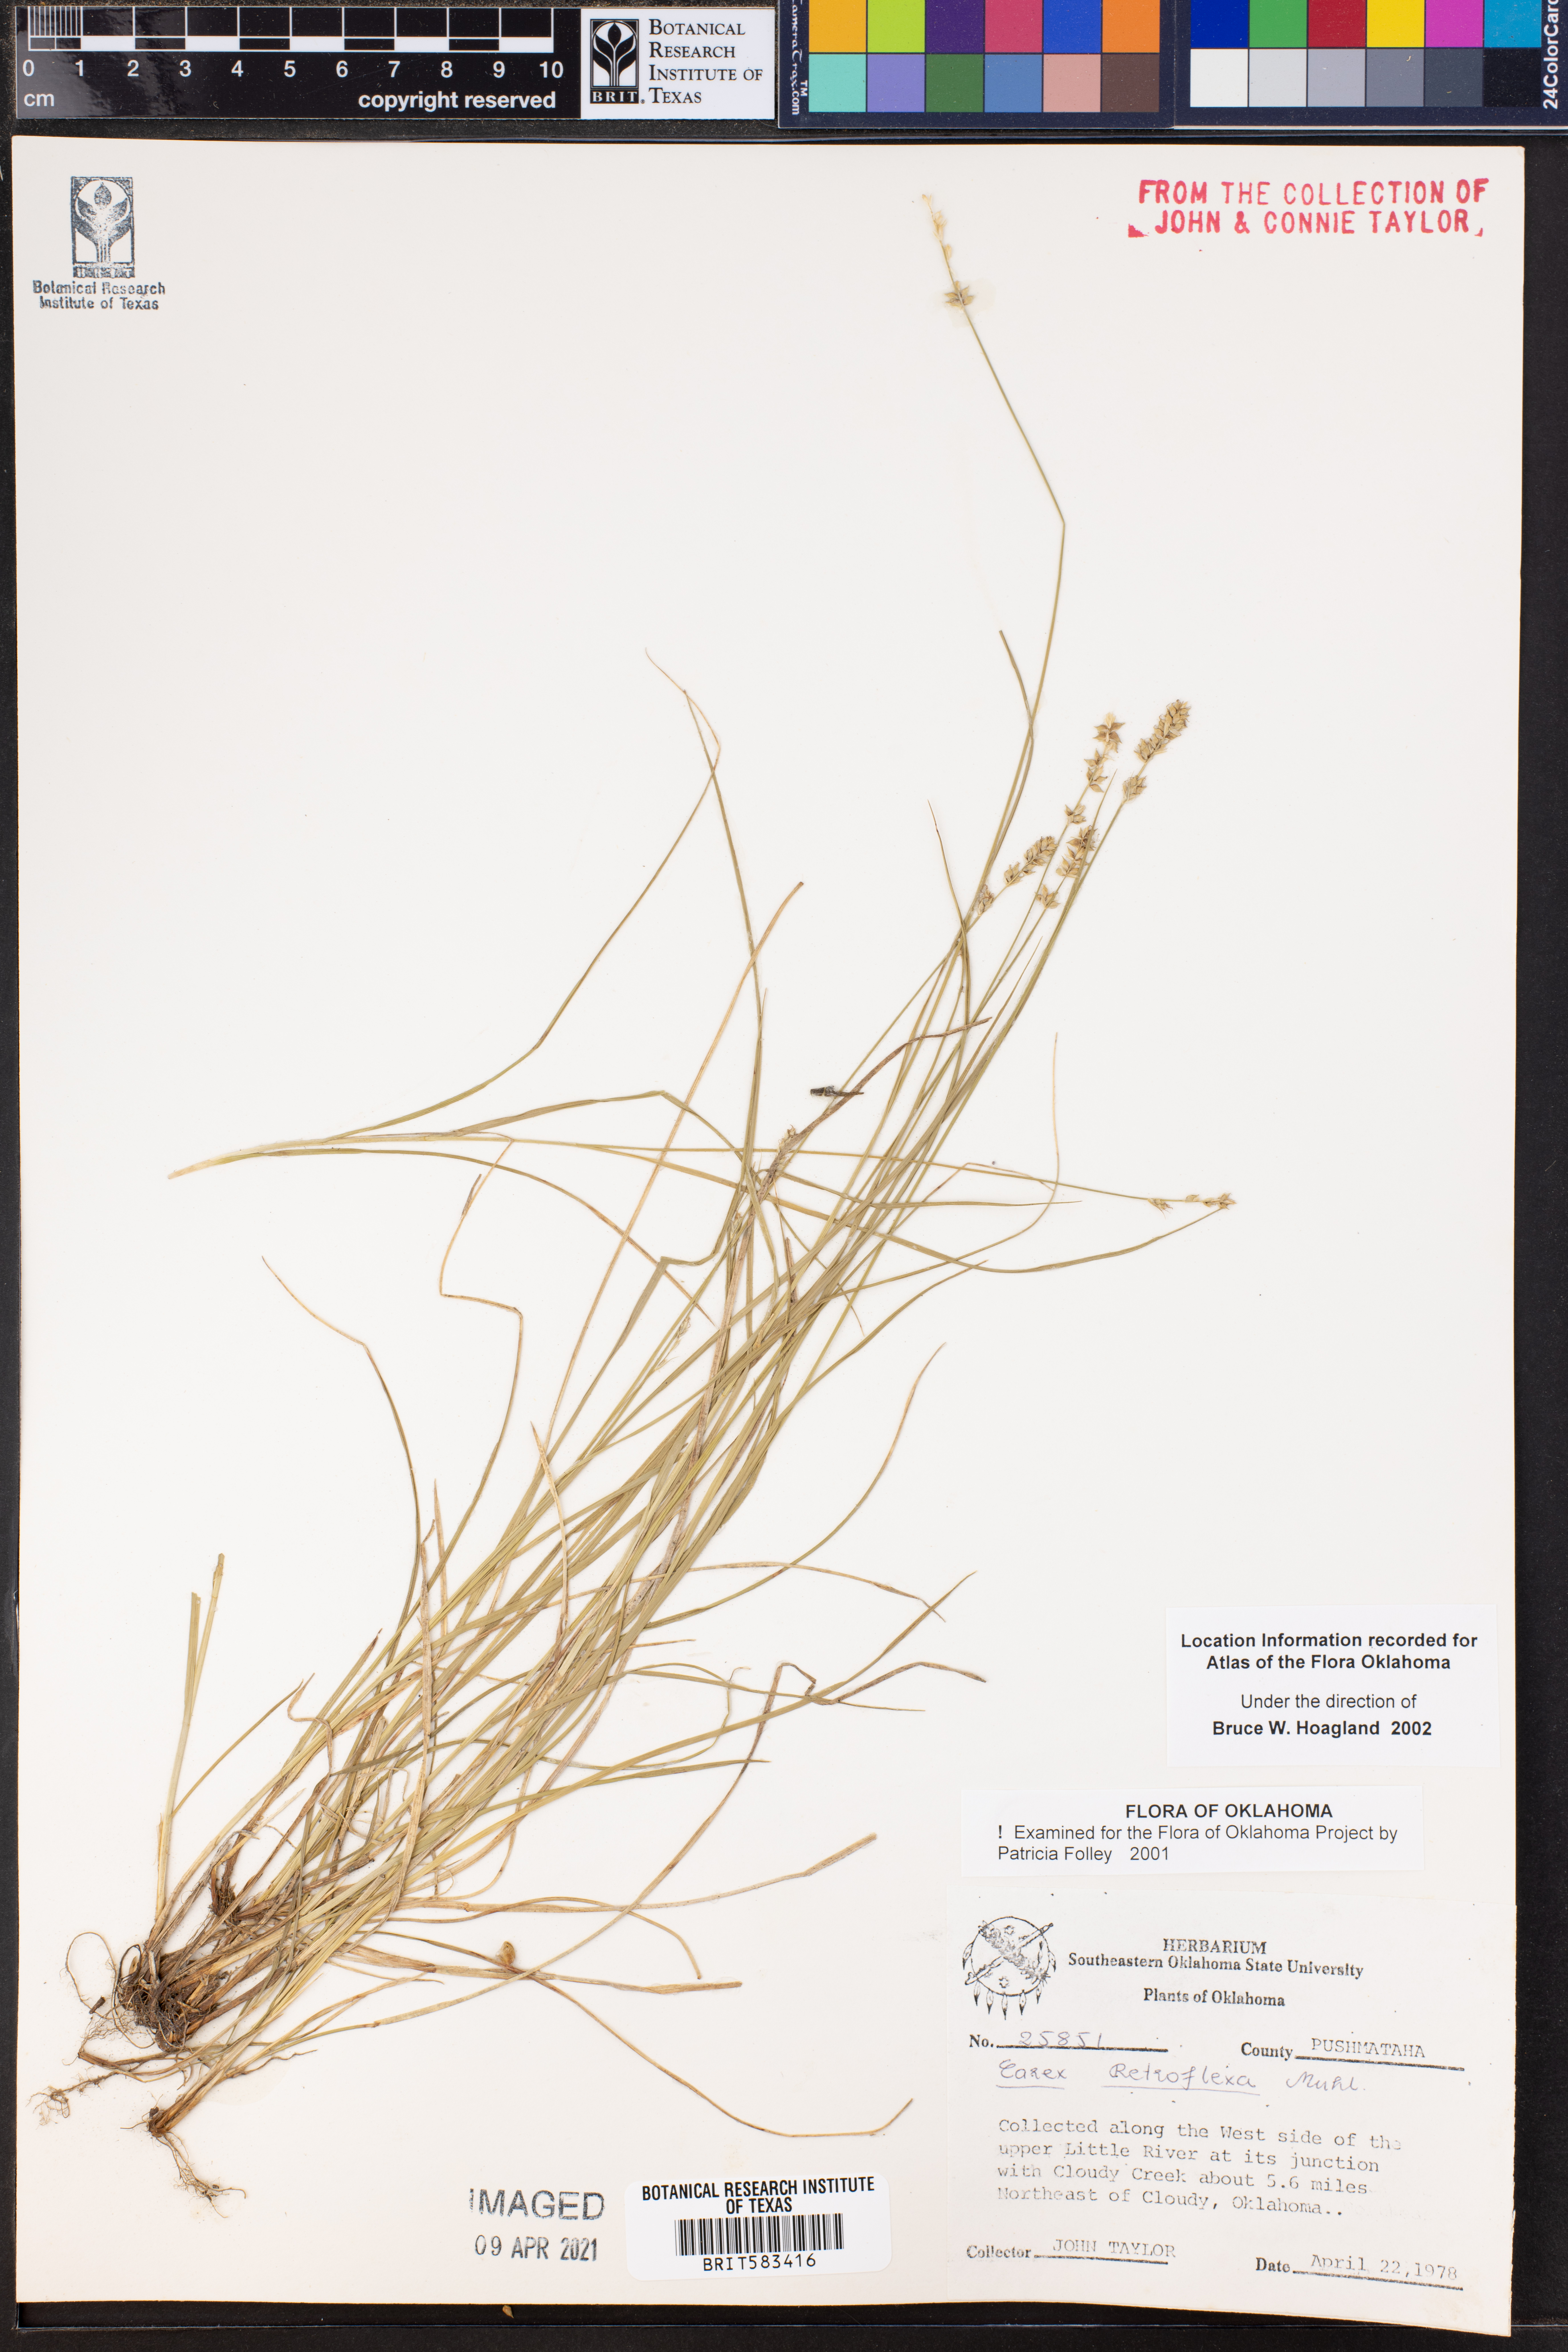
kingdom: Plantae
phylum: Tracheophyta
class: Liliopsida
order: Poales
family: Cyperaceae
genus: Carex
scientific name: Carex retroflexa
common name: Reflexed sedge
